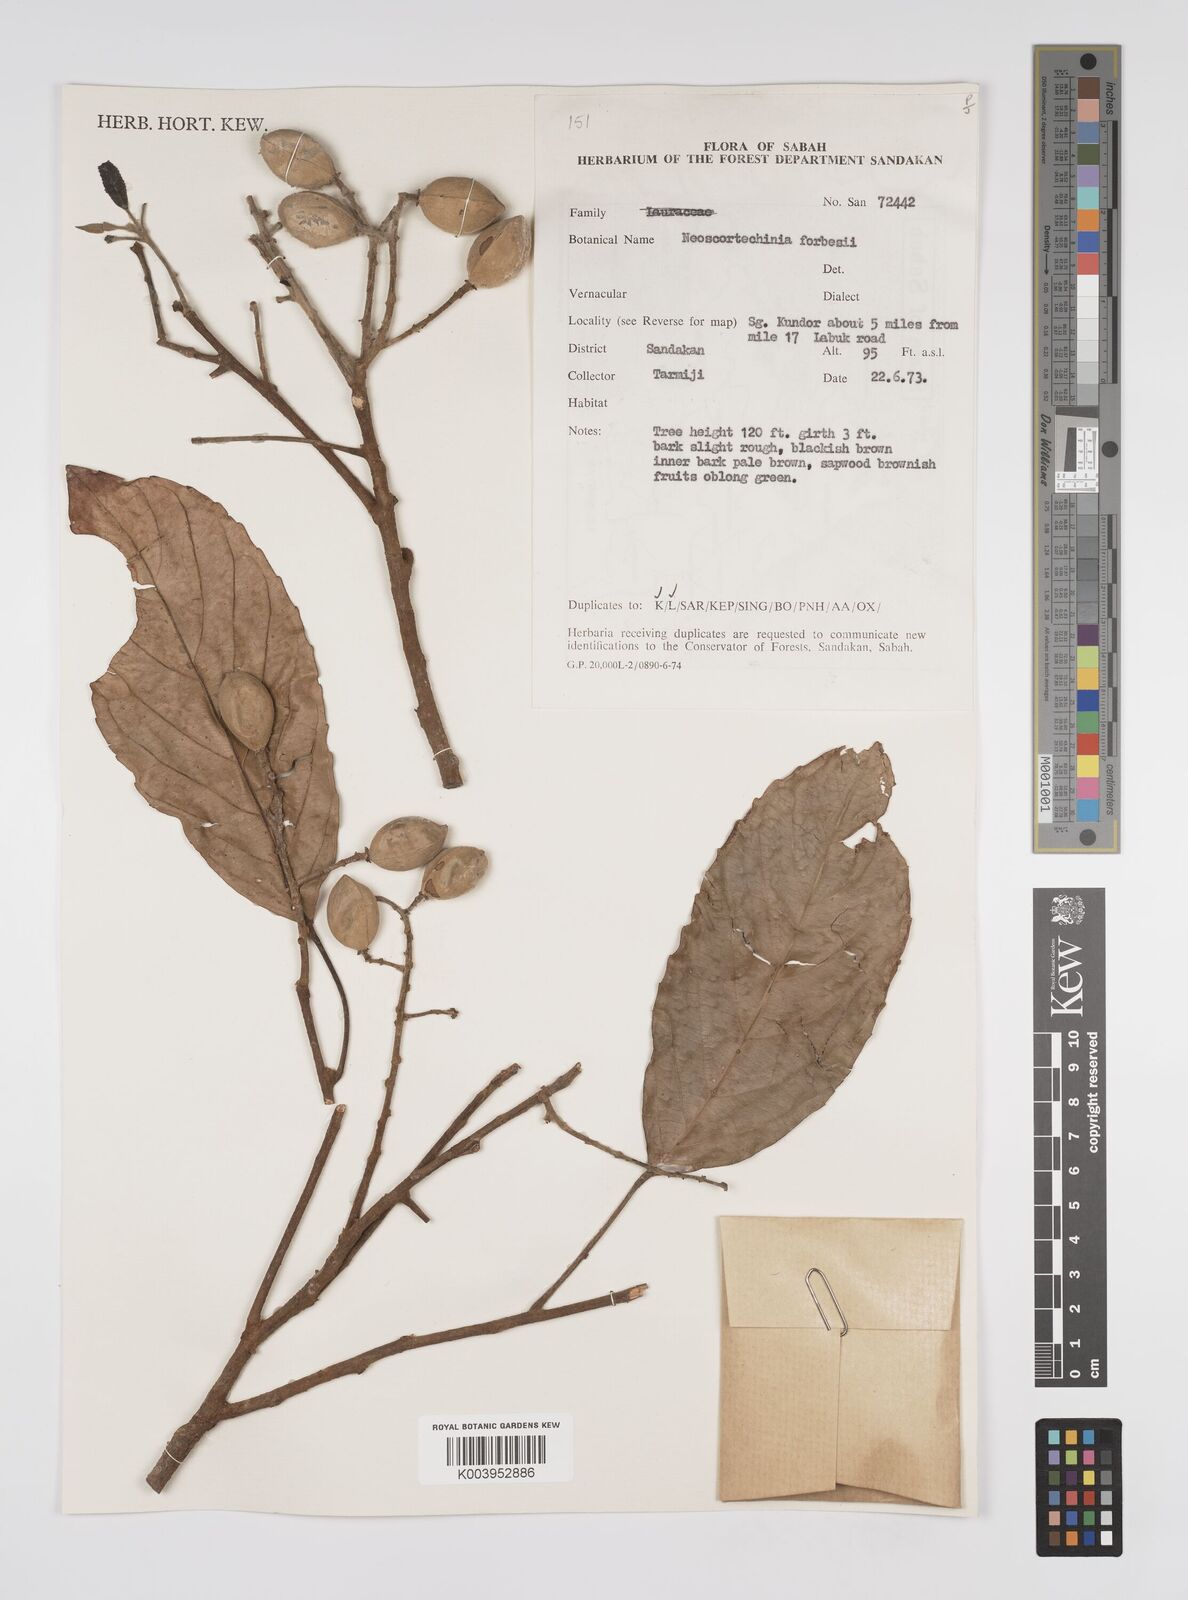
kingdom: Plantae
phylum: Tracheophyta
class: Magnoliopsida
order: Malpighiales
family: Euphorbiaceae
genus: Neoscortechinia
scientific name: Neoscortechinia philippinensis
